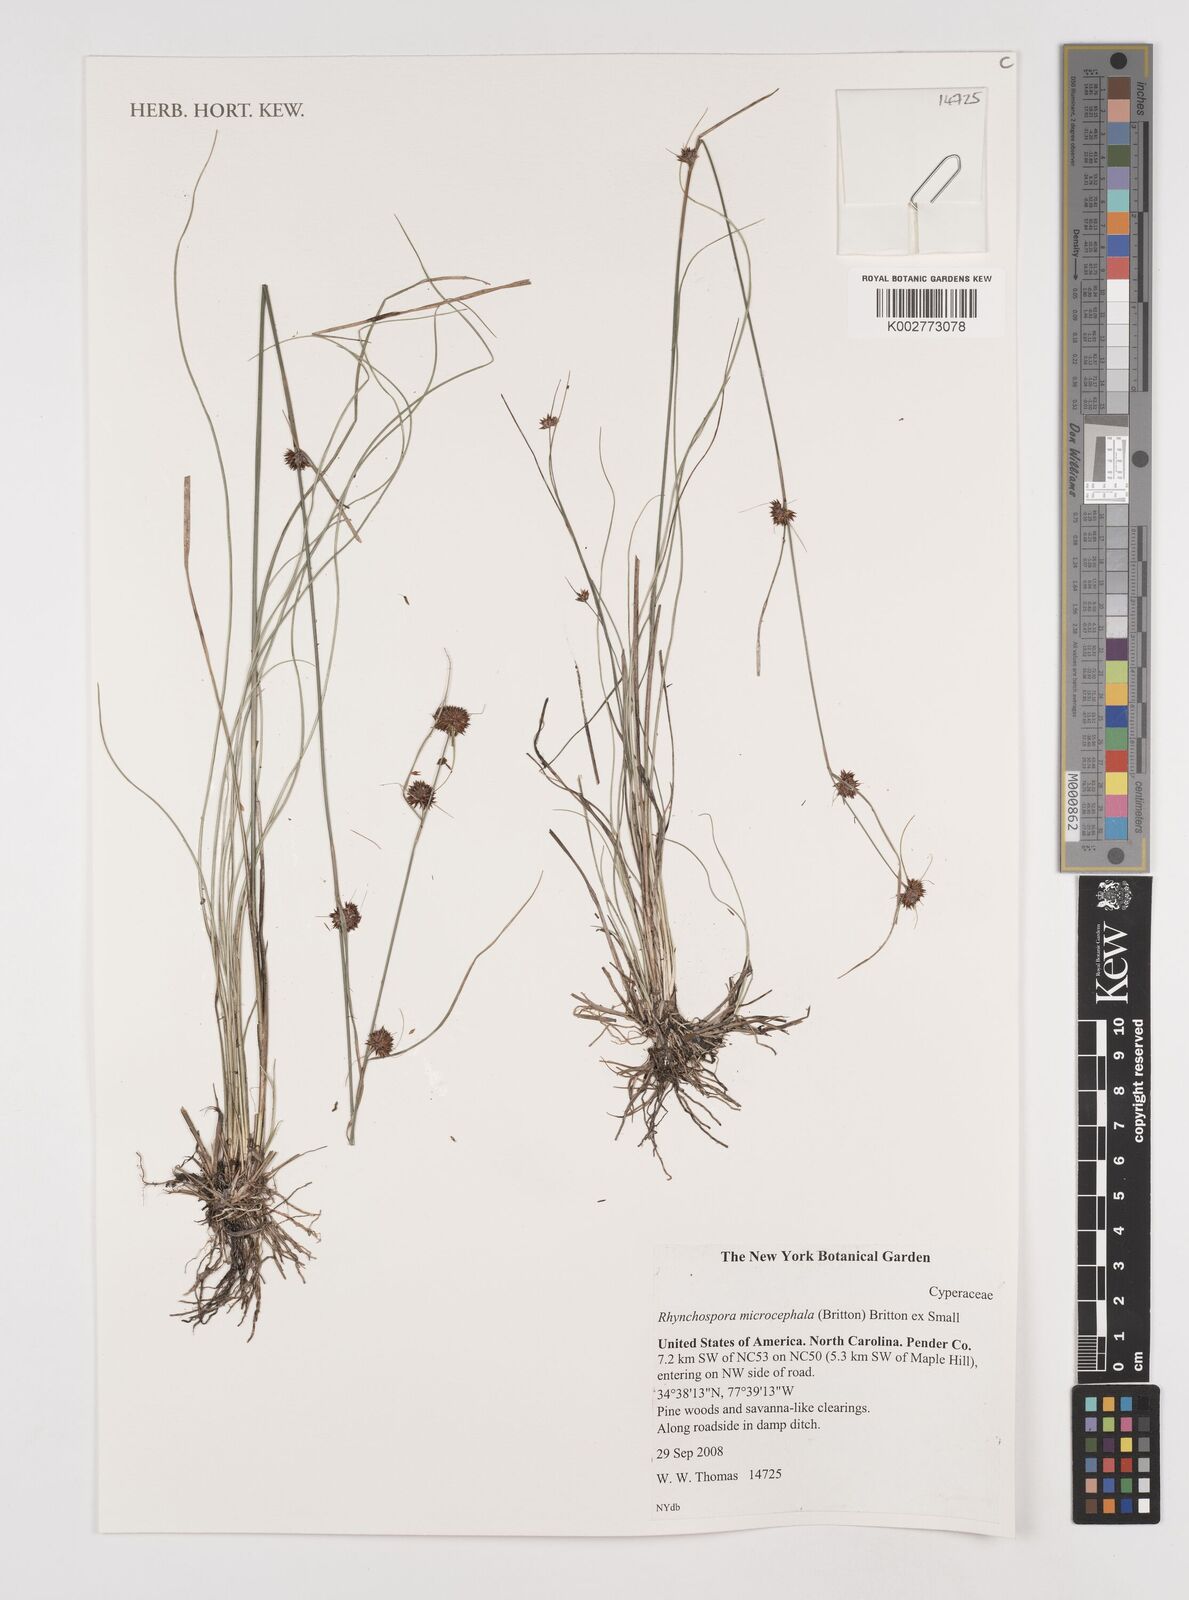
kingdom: Plantae
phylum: Tracheophyta
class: Liliopsida
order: Poales
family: Cyperaceae
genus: Rhynchospora
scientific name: Rhynchospora microcephala
